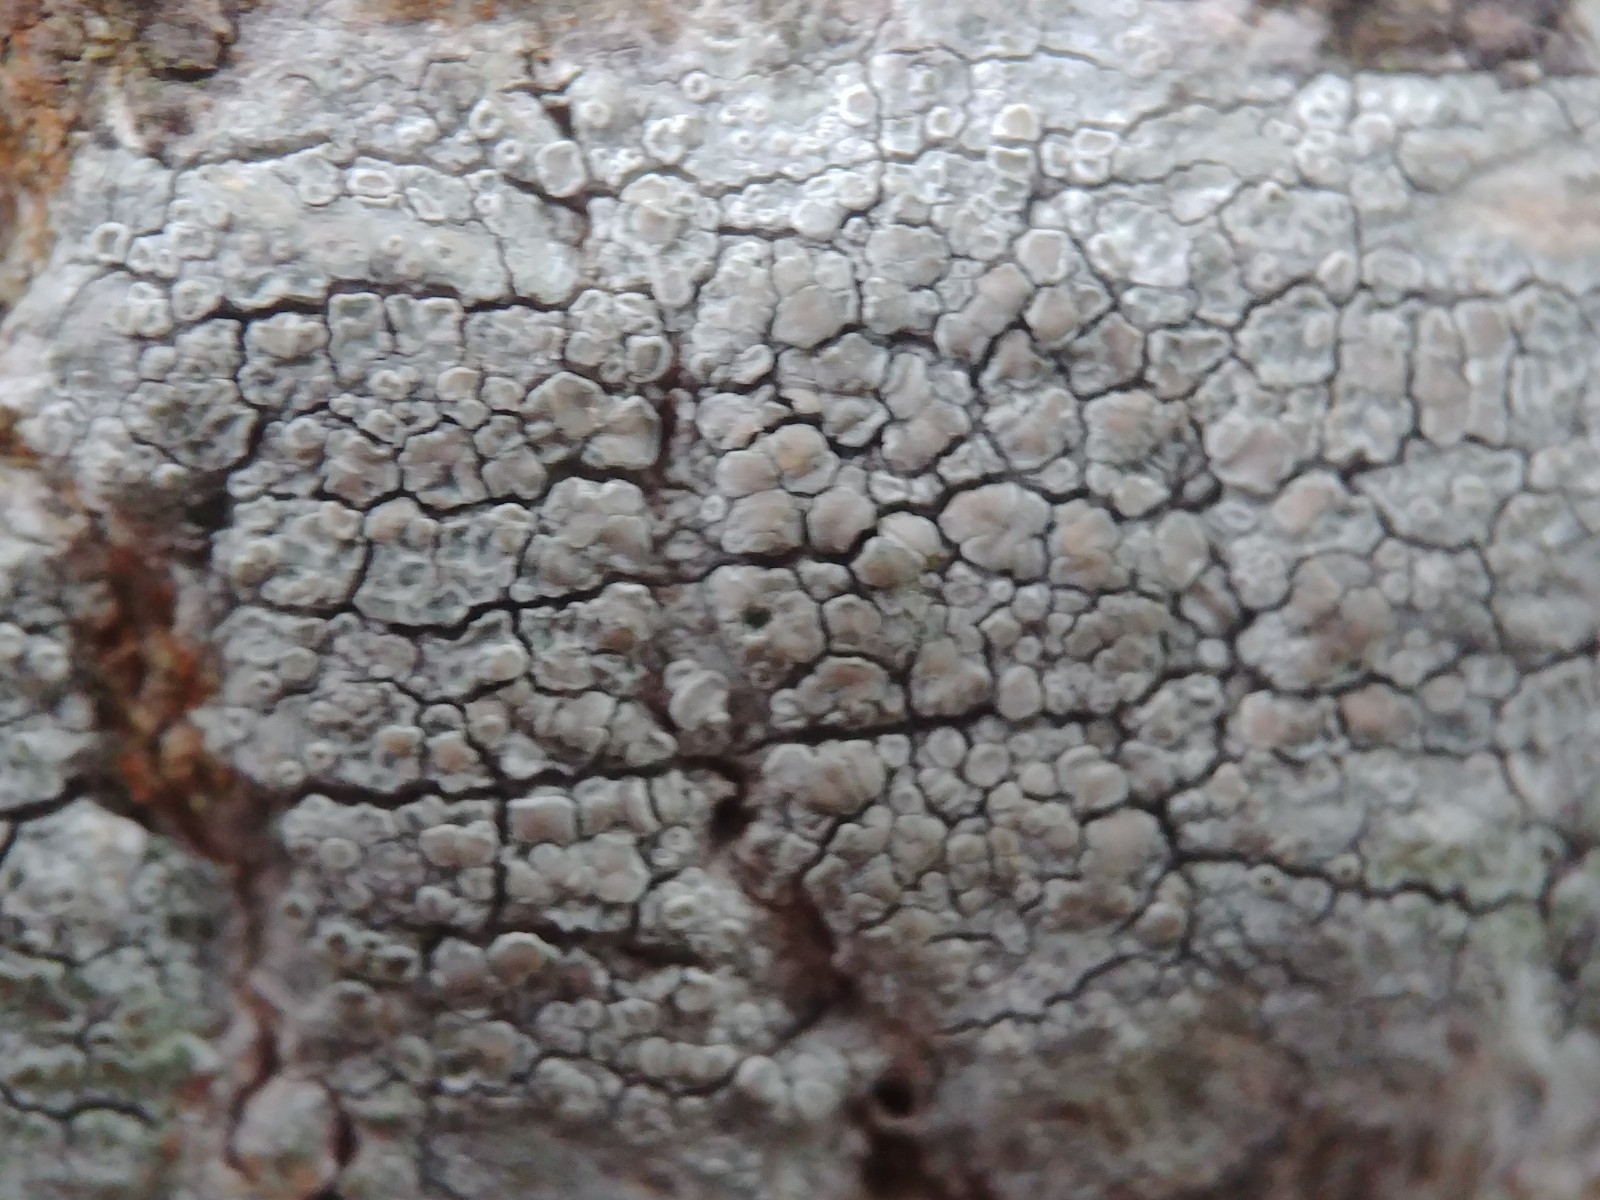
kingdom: Fungi
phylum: Ascomycota
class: Lecanoromycetes
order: Lecanorales
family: Lecanoraceae
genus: Lecanora
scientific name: Lecanora
